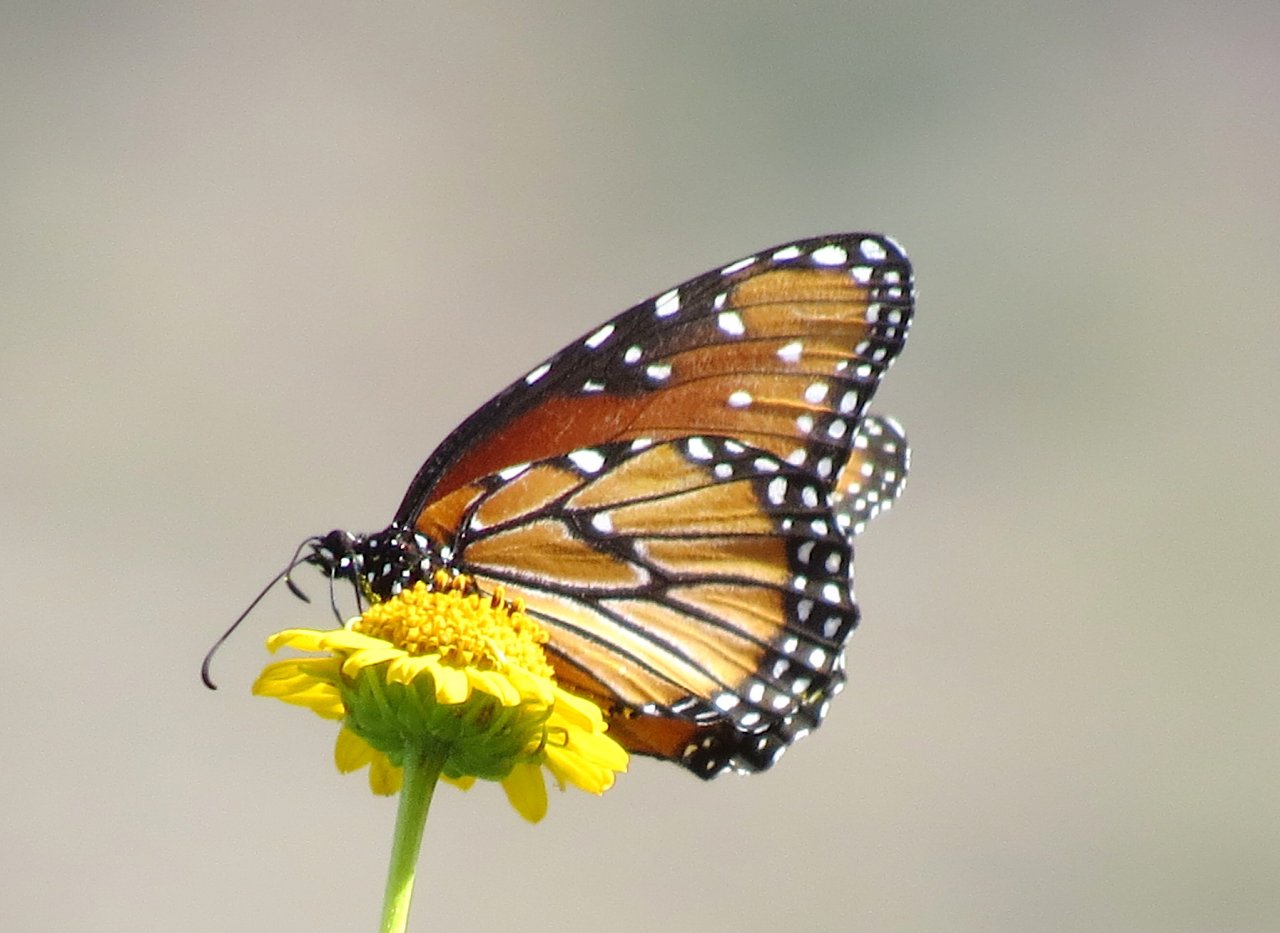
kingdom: Animalia
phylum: Arthropoda
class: Insecta
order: Lepidoptera
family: Nymphalidae
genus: Danaus
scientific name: Danaus gilippus
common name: Queen
